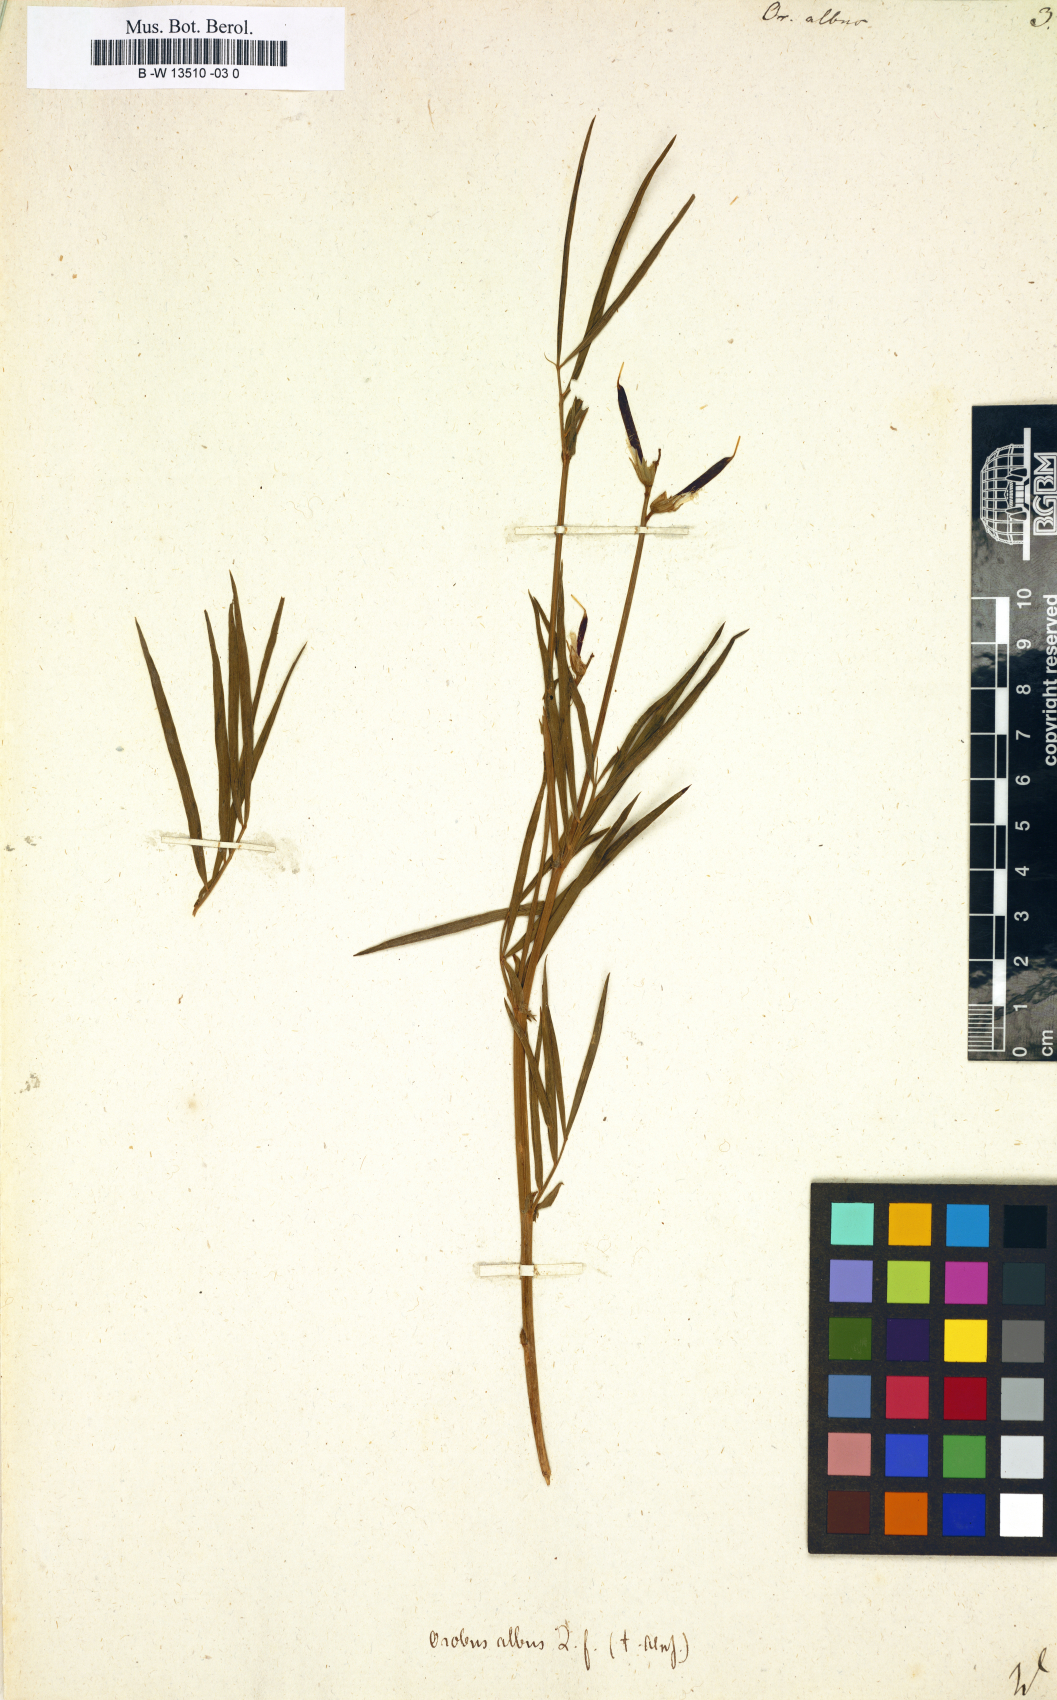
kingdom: Plantae
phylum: Tracheophyta
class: Magnoliopsida
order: Fabales
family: Fabaceae
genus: Lathyrus
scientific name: Lathyrus pannonicus
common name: Pea
